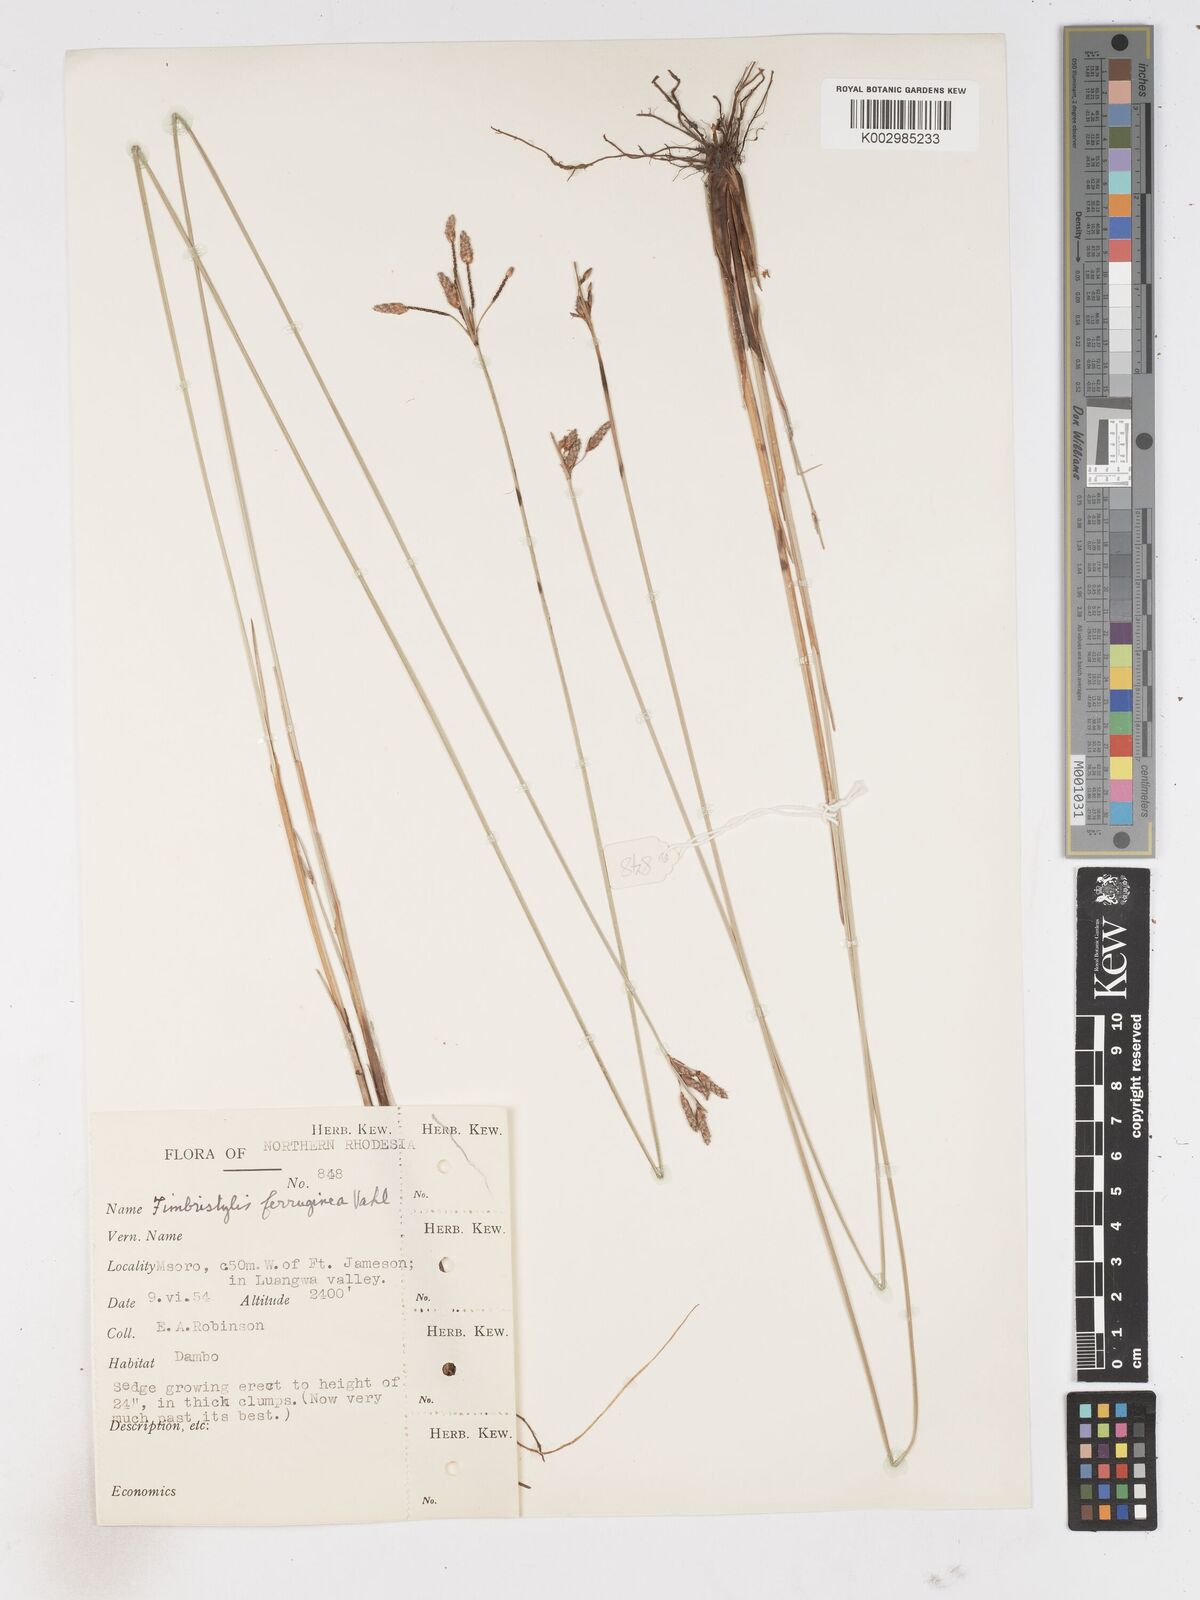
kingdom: Plantae
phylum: Tracheophyta
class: Liliopsida
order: Poales
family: Cyperaceae
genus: Fimbristylis
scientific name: Fimbristylis ferruginea
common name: West indian fimbry
